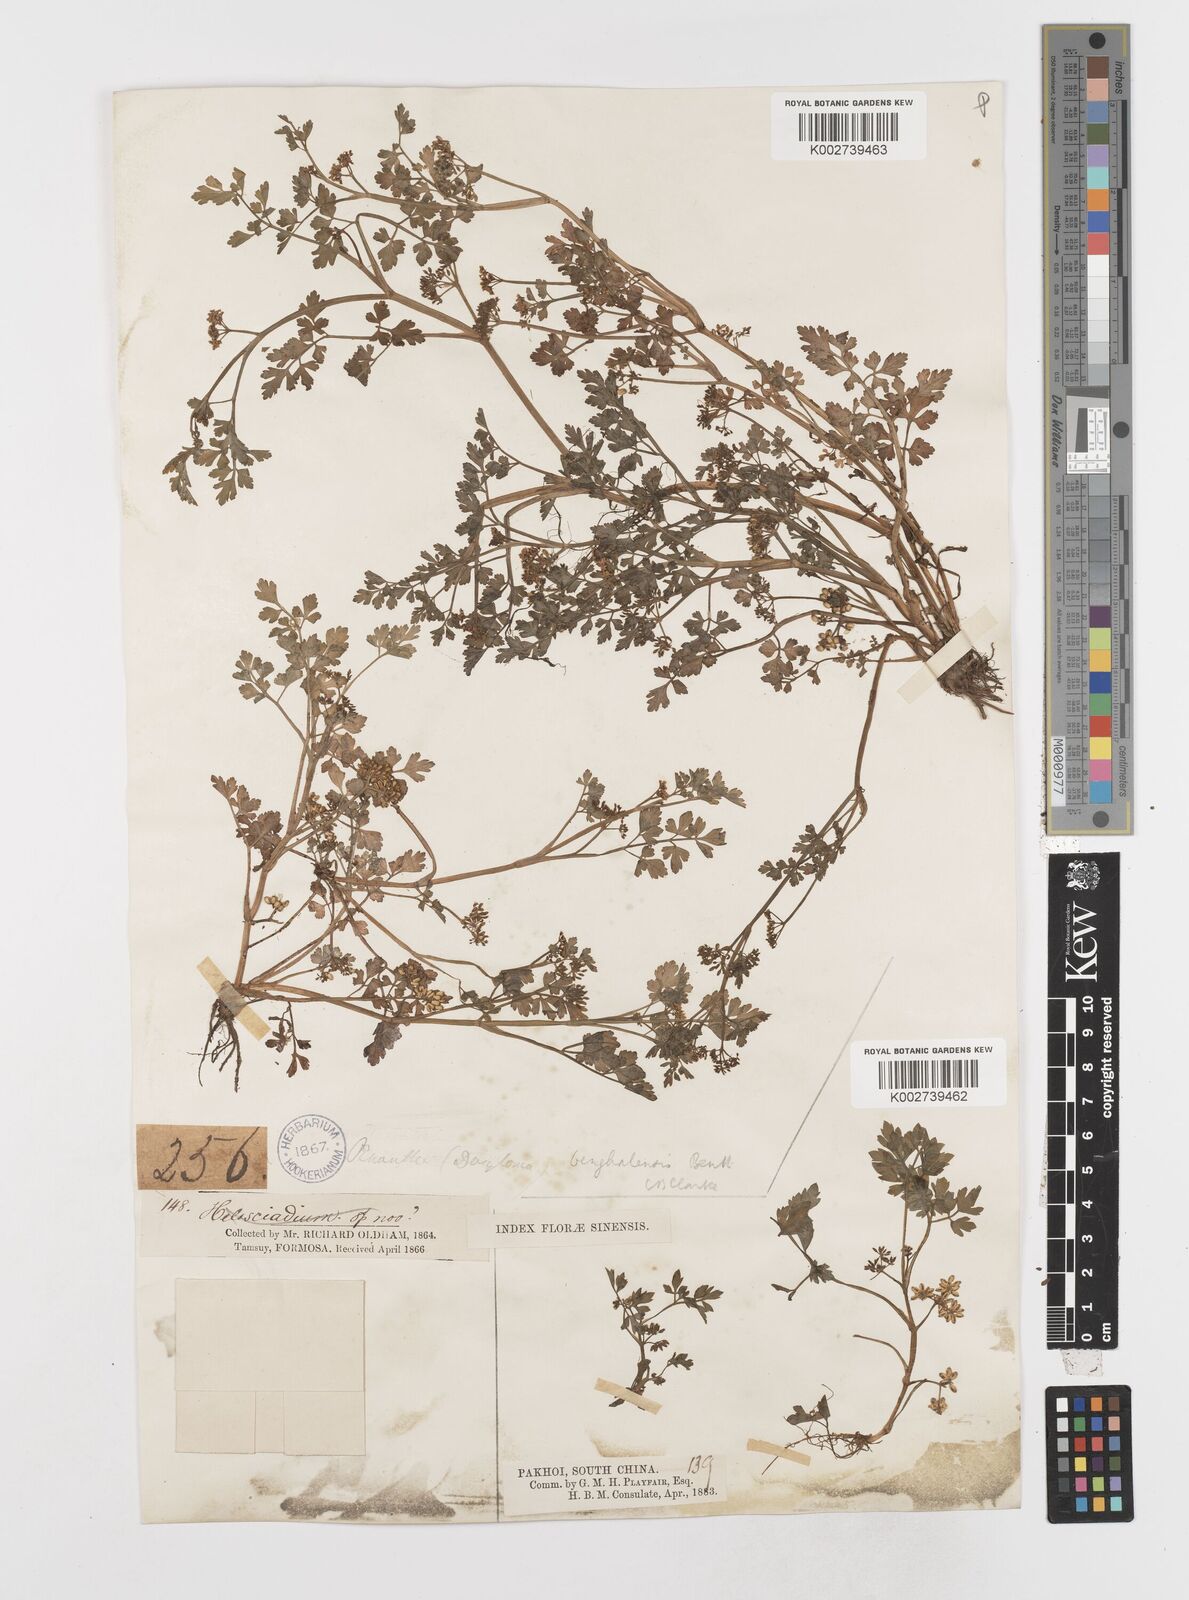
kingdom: Plantae
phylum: Tracheophyta
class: Magnoliopsida
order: Apiales
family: Apiaceae
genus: Oenanthe
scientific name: Oenanthe javanica
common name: Java water-dropwort
